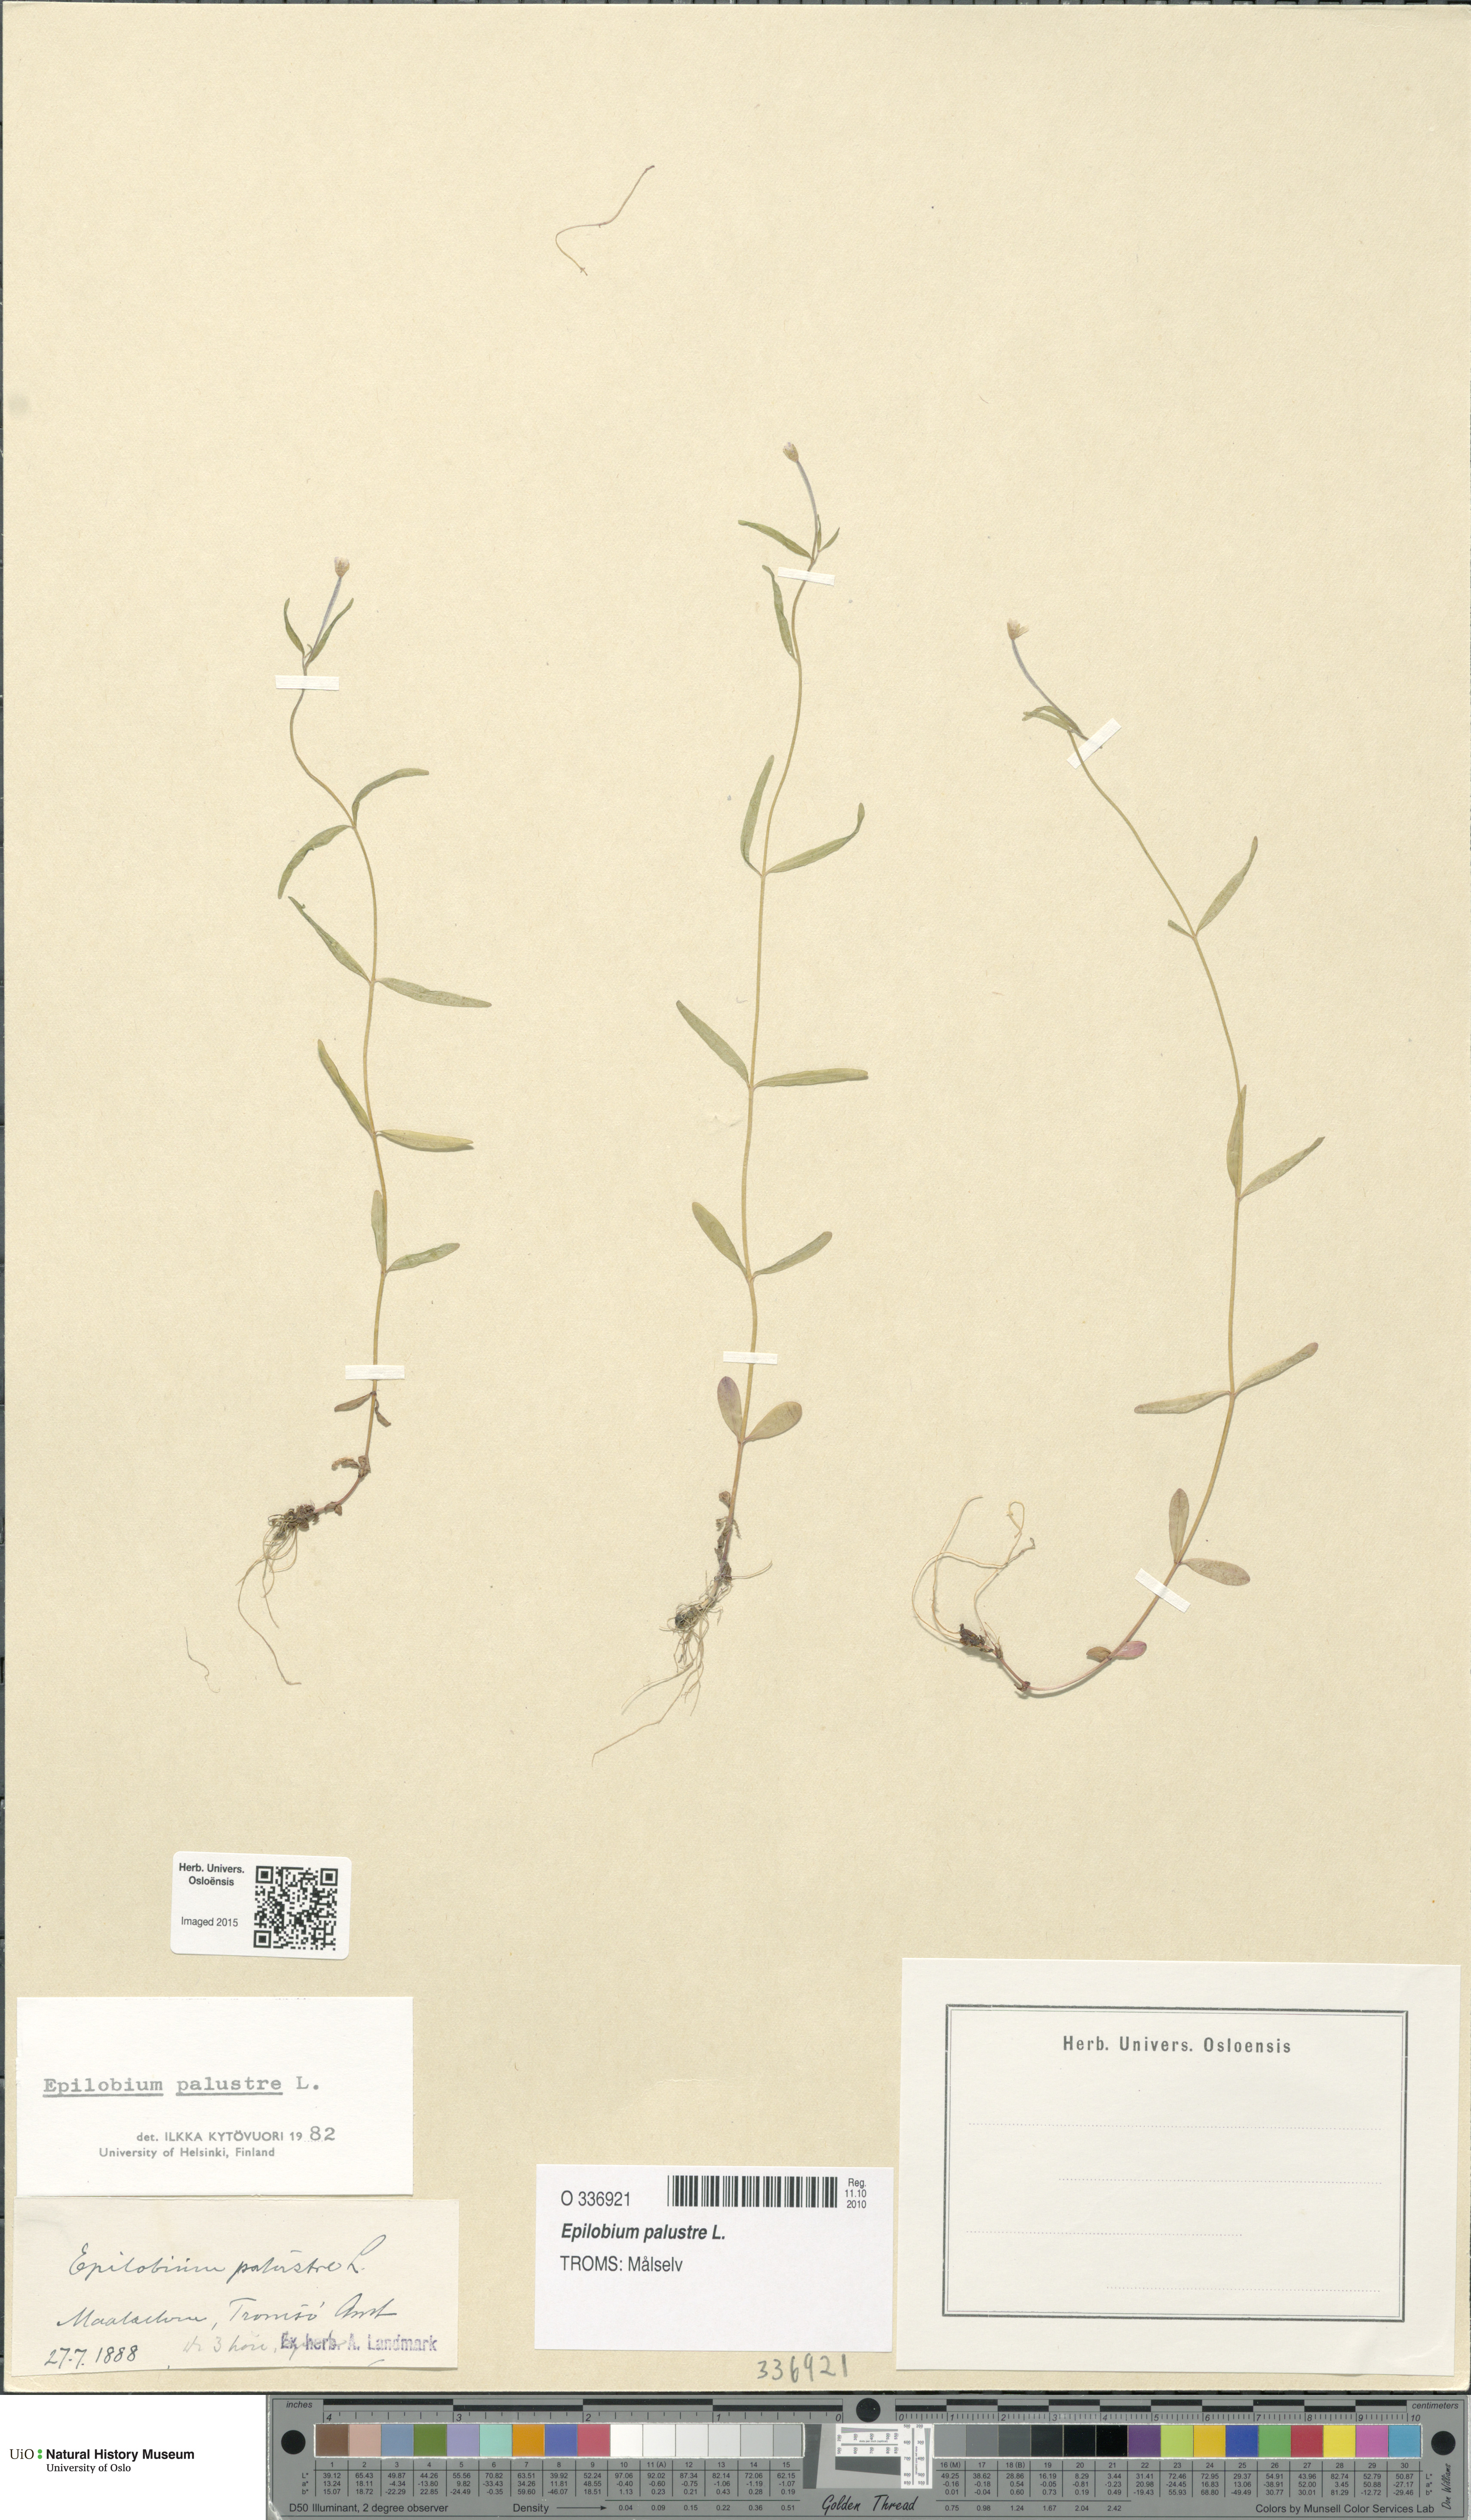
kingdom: Plantae
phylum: Tracheophyta
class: Magnoliopsida
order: Myrtales
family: Onagraceae
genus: Epilobium
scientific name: Epilobium palustre
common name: Marsh willowherb
